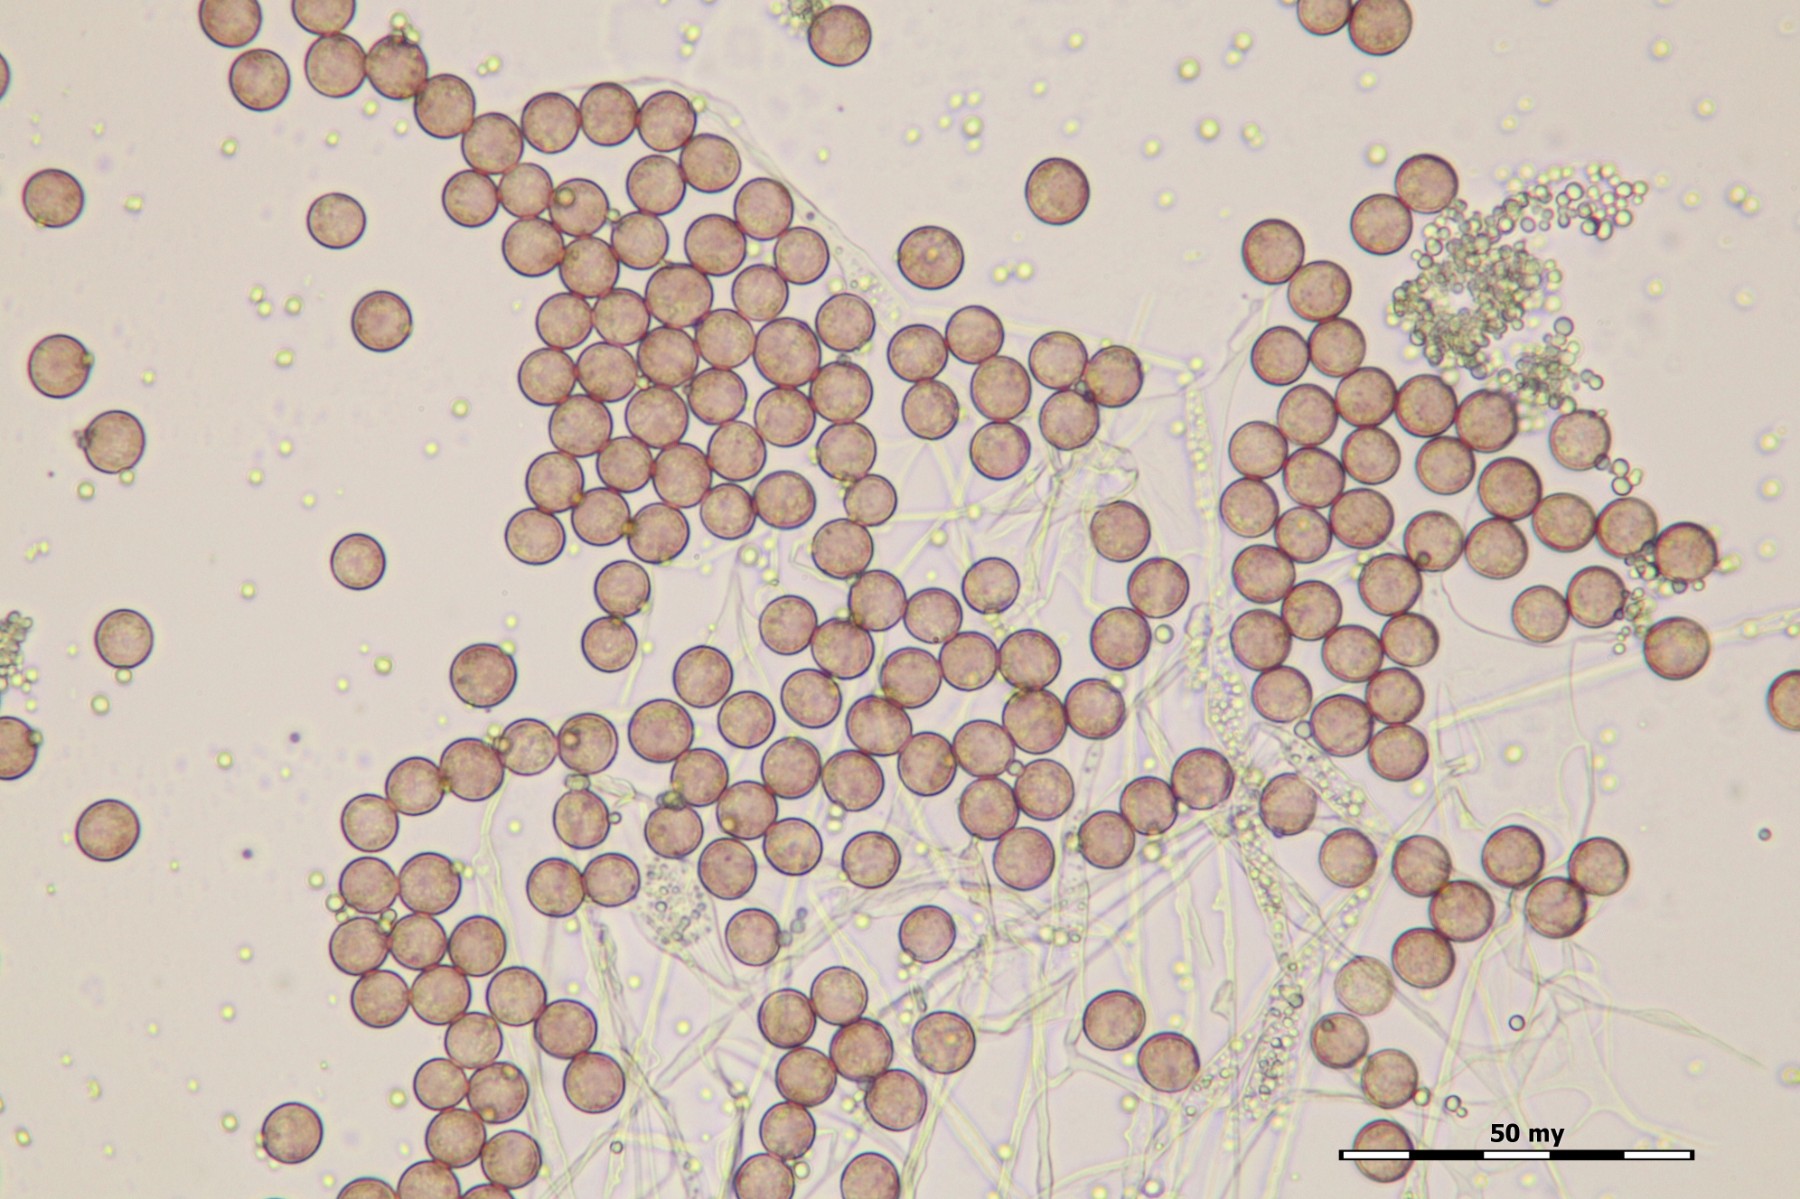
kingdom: Protozoa
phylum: Mycetozoa
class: Myxomycetes
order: Physarales
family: Physaraceae
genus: Fuligo
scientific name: Fuligo septica
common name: Dog vomit slime mold
